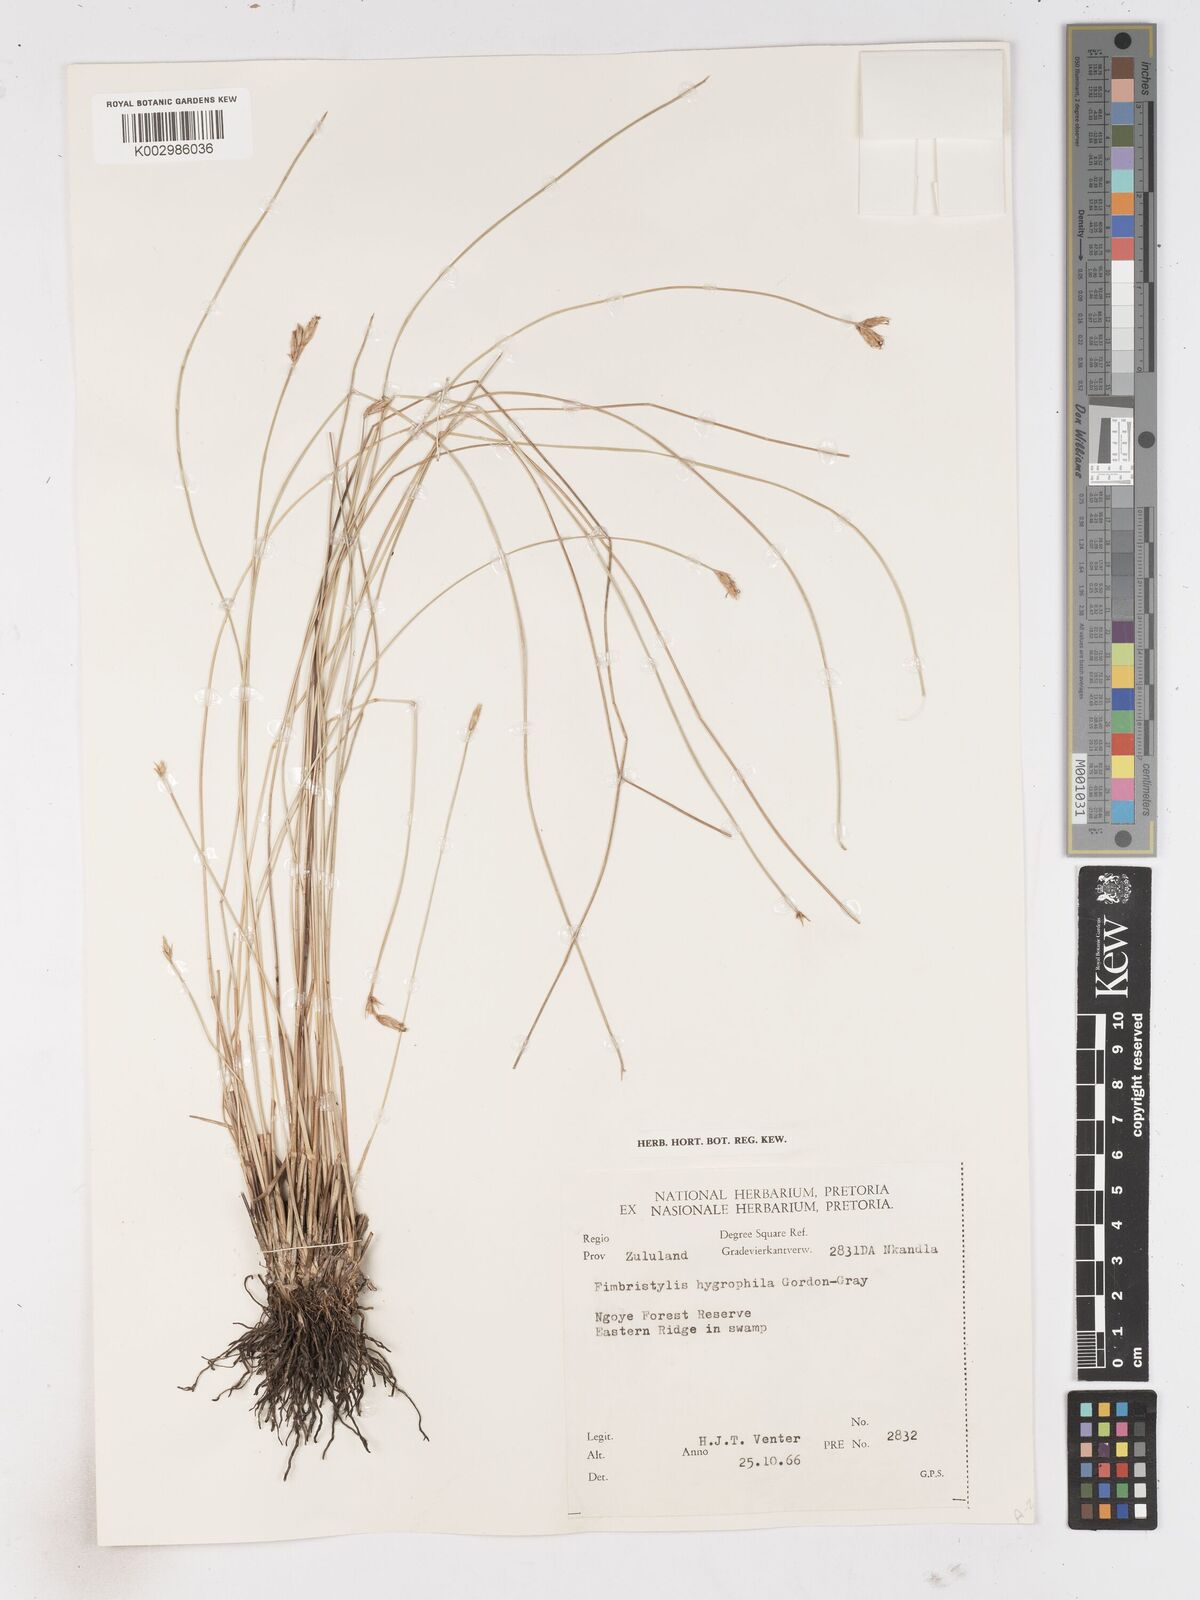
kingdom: Plantae
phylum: Tracheophyta
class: Liliopsida
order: Poales
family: Cyperaceae
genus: Zulustylis
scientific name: Zulustylis hygrophila
